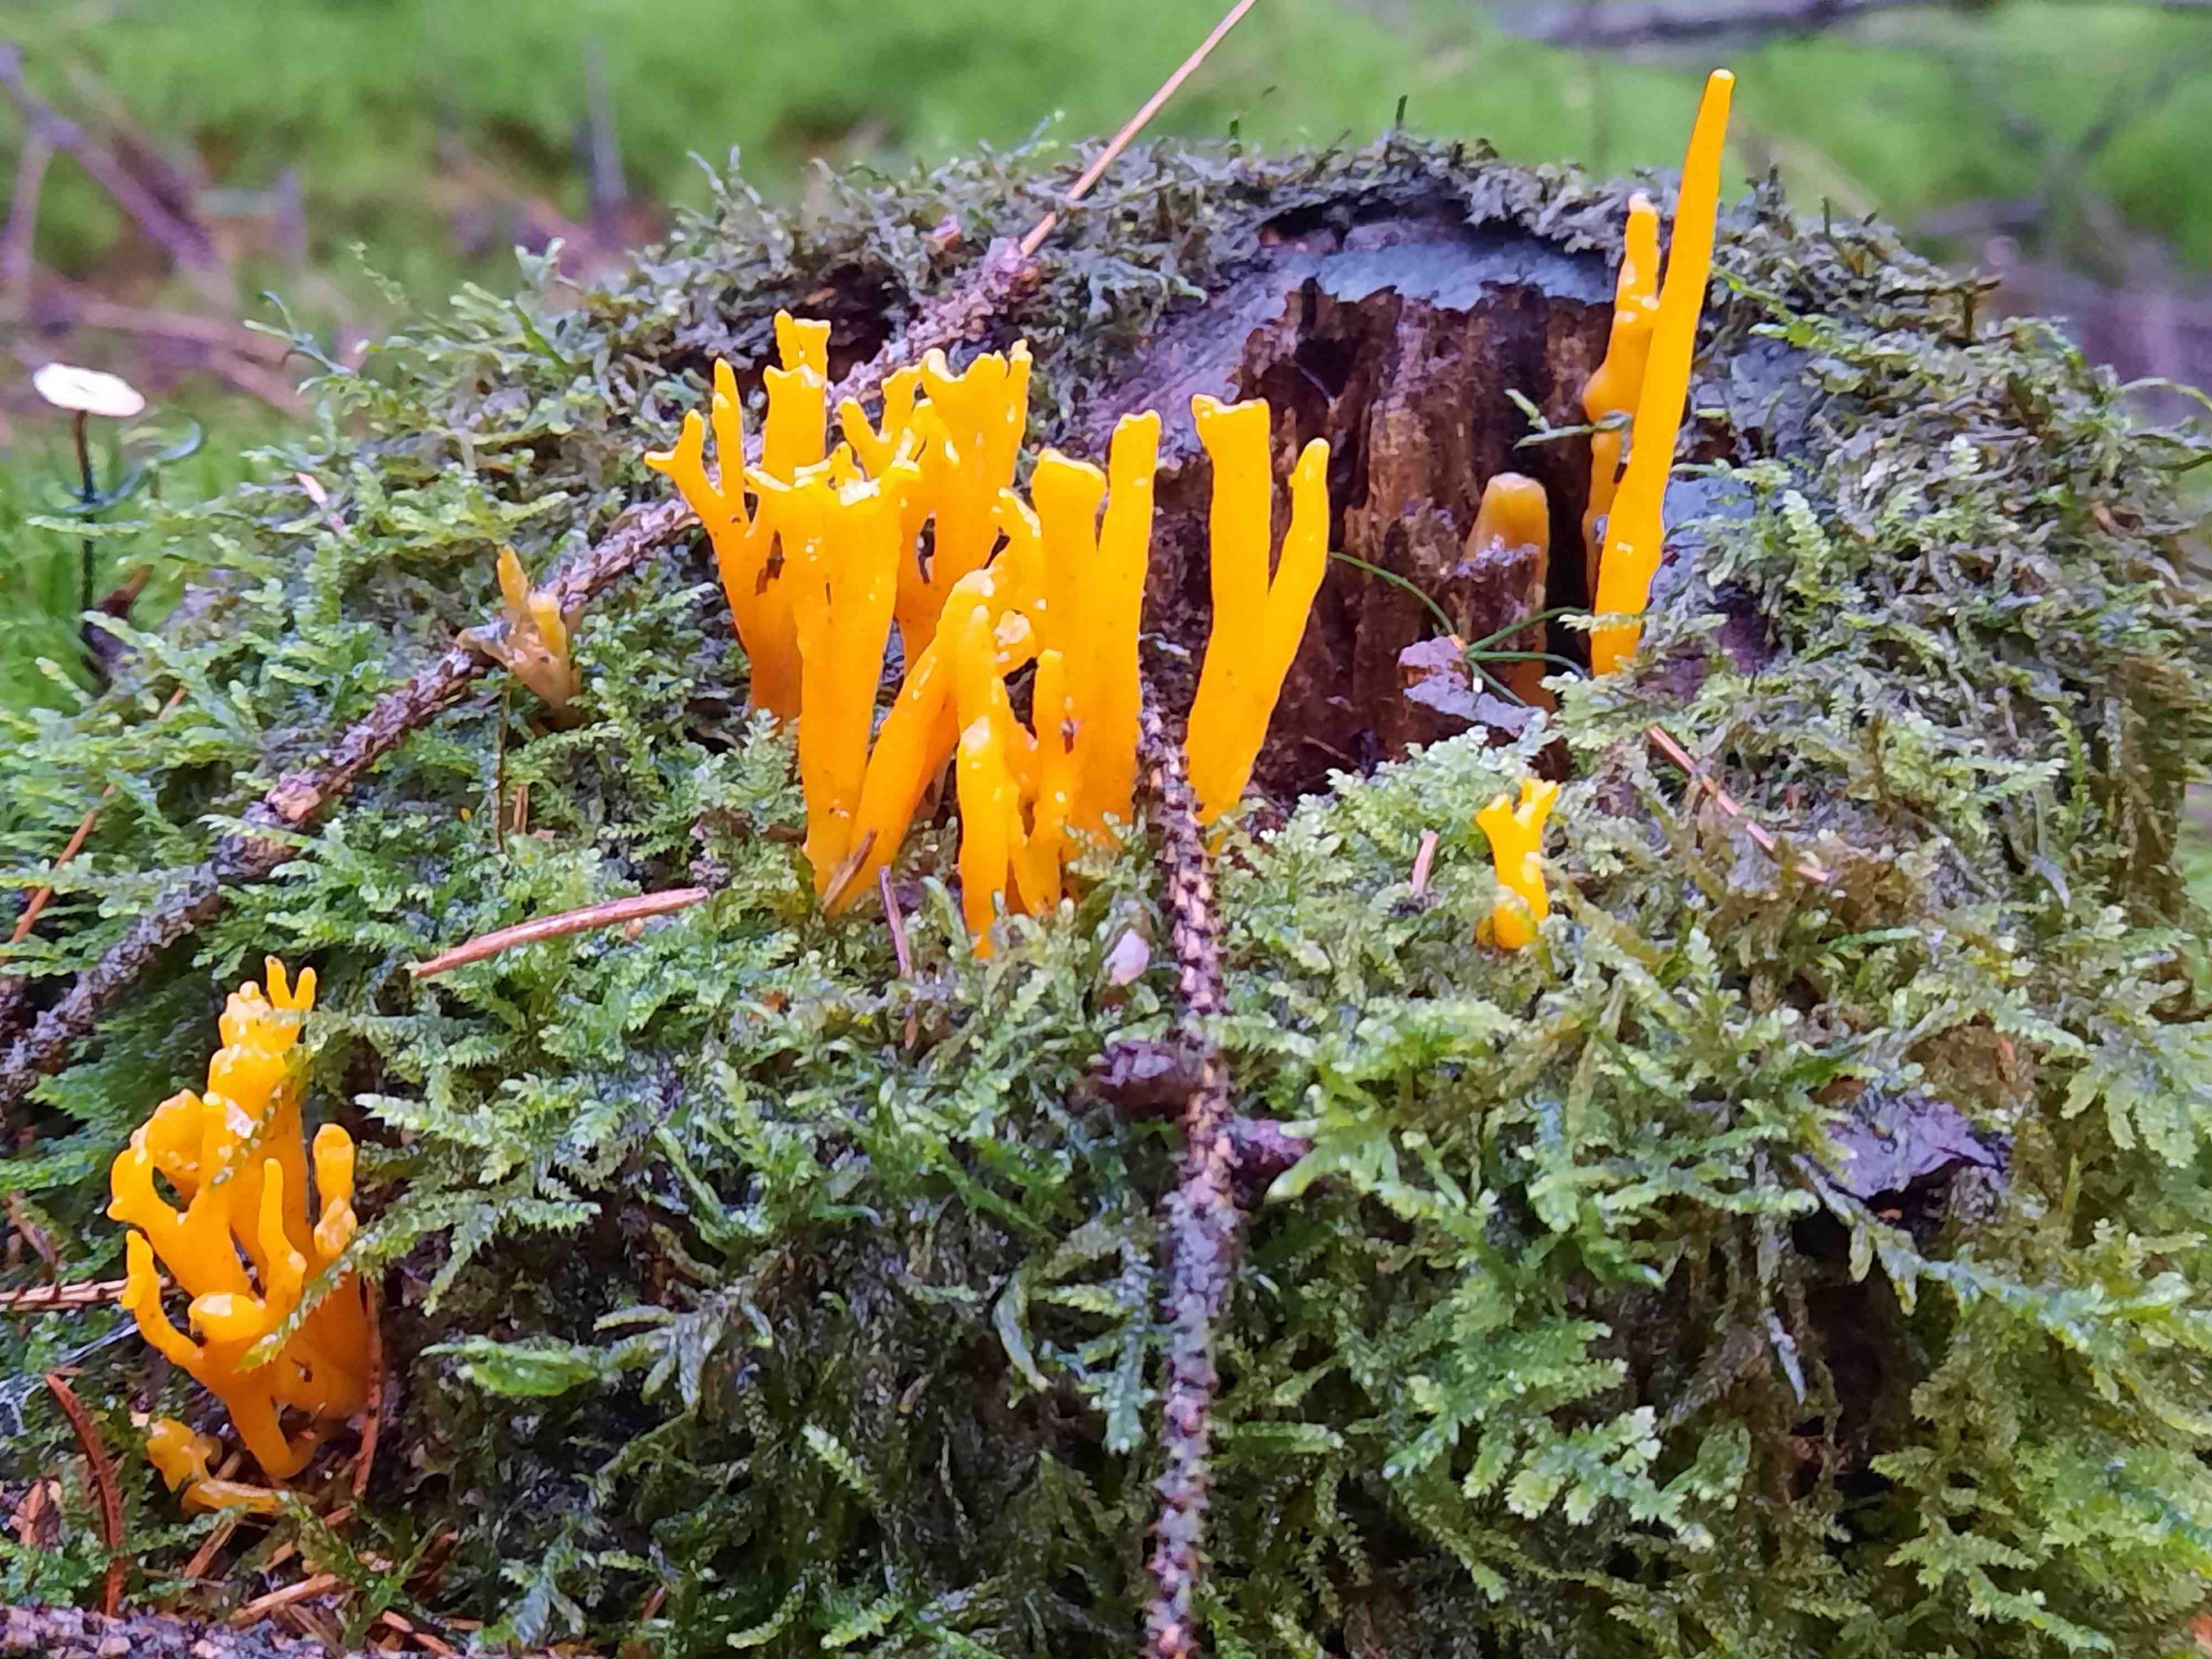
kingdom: Fungi
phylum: Basidiomycota
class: Dacrymycetes
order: Dacrymycetales
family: Dacrymycetaceae
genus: Calocera
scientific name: Calocera viscosa
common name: almindelig guldgaffel
